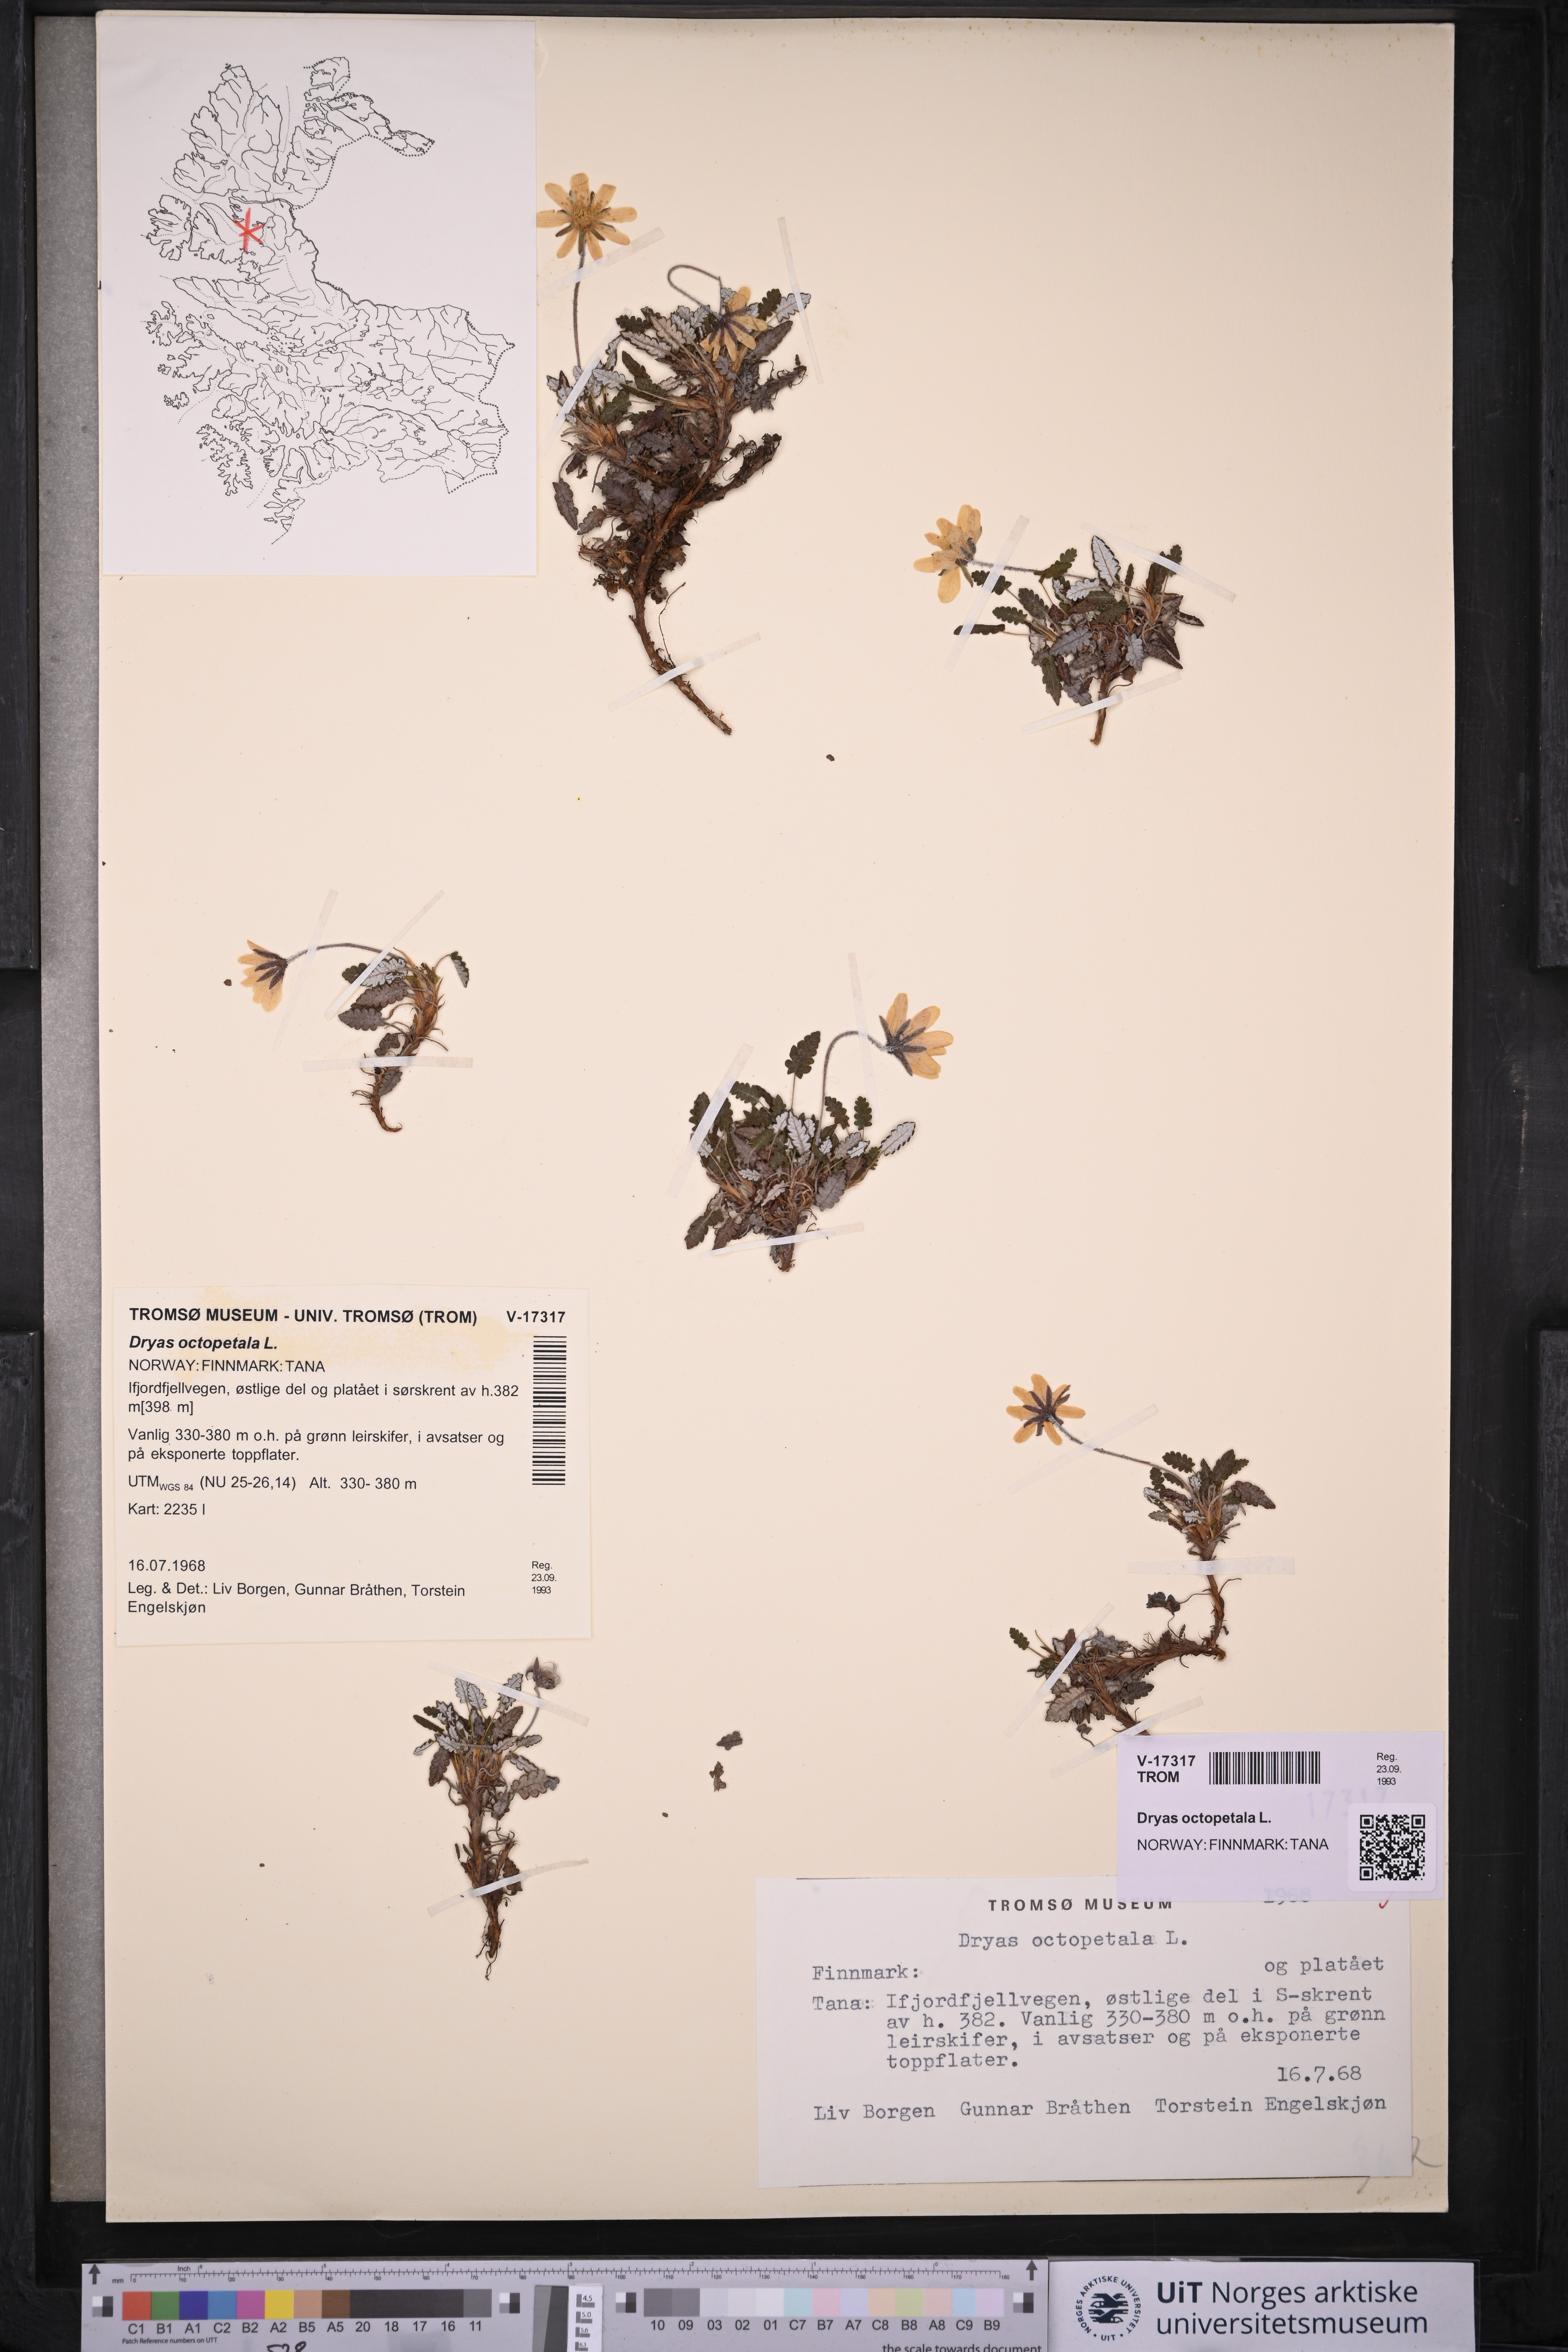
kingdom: Plantae
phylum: Tracheophyta
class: Magnoliopsida
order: Rosales
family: Rosaceae
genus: Dryas
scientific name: Dryas octopetala
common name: Eight-petal mountain-avens
